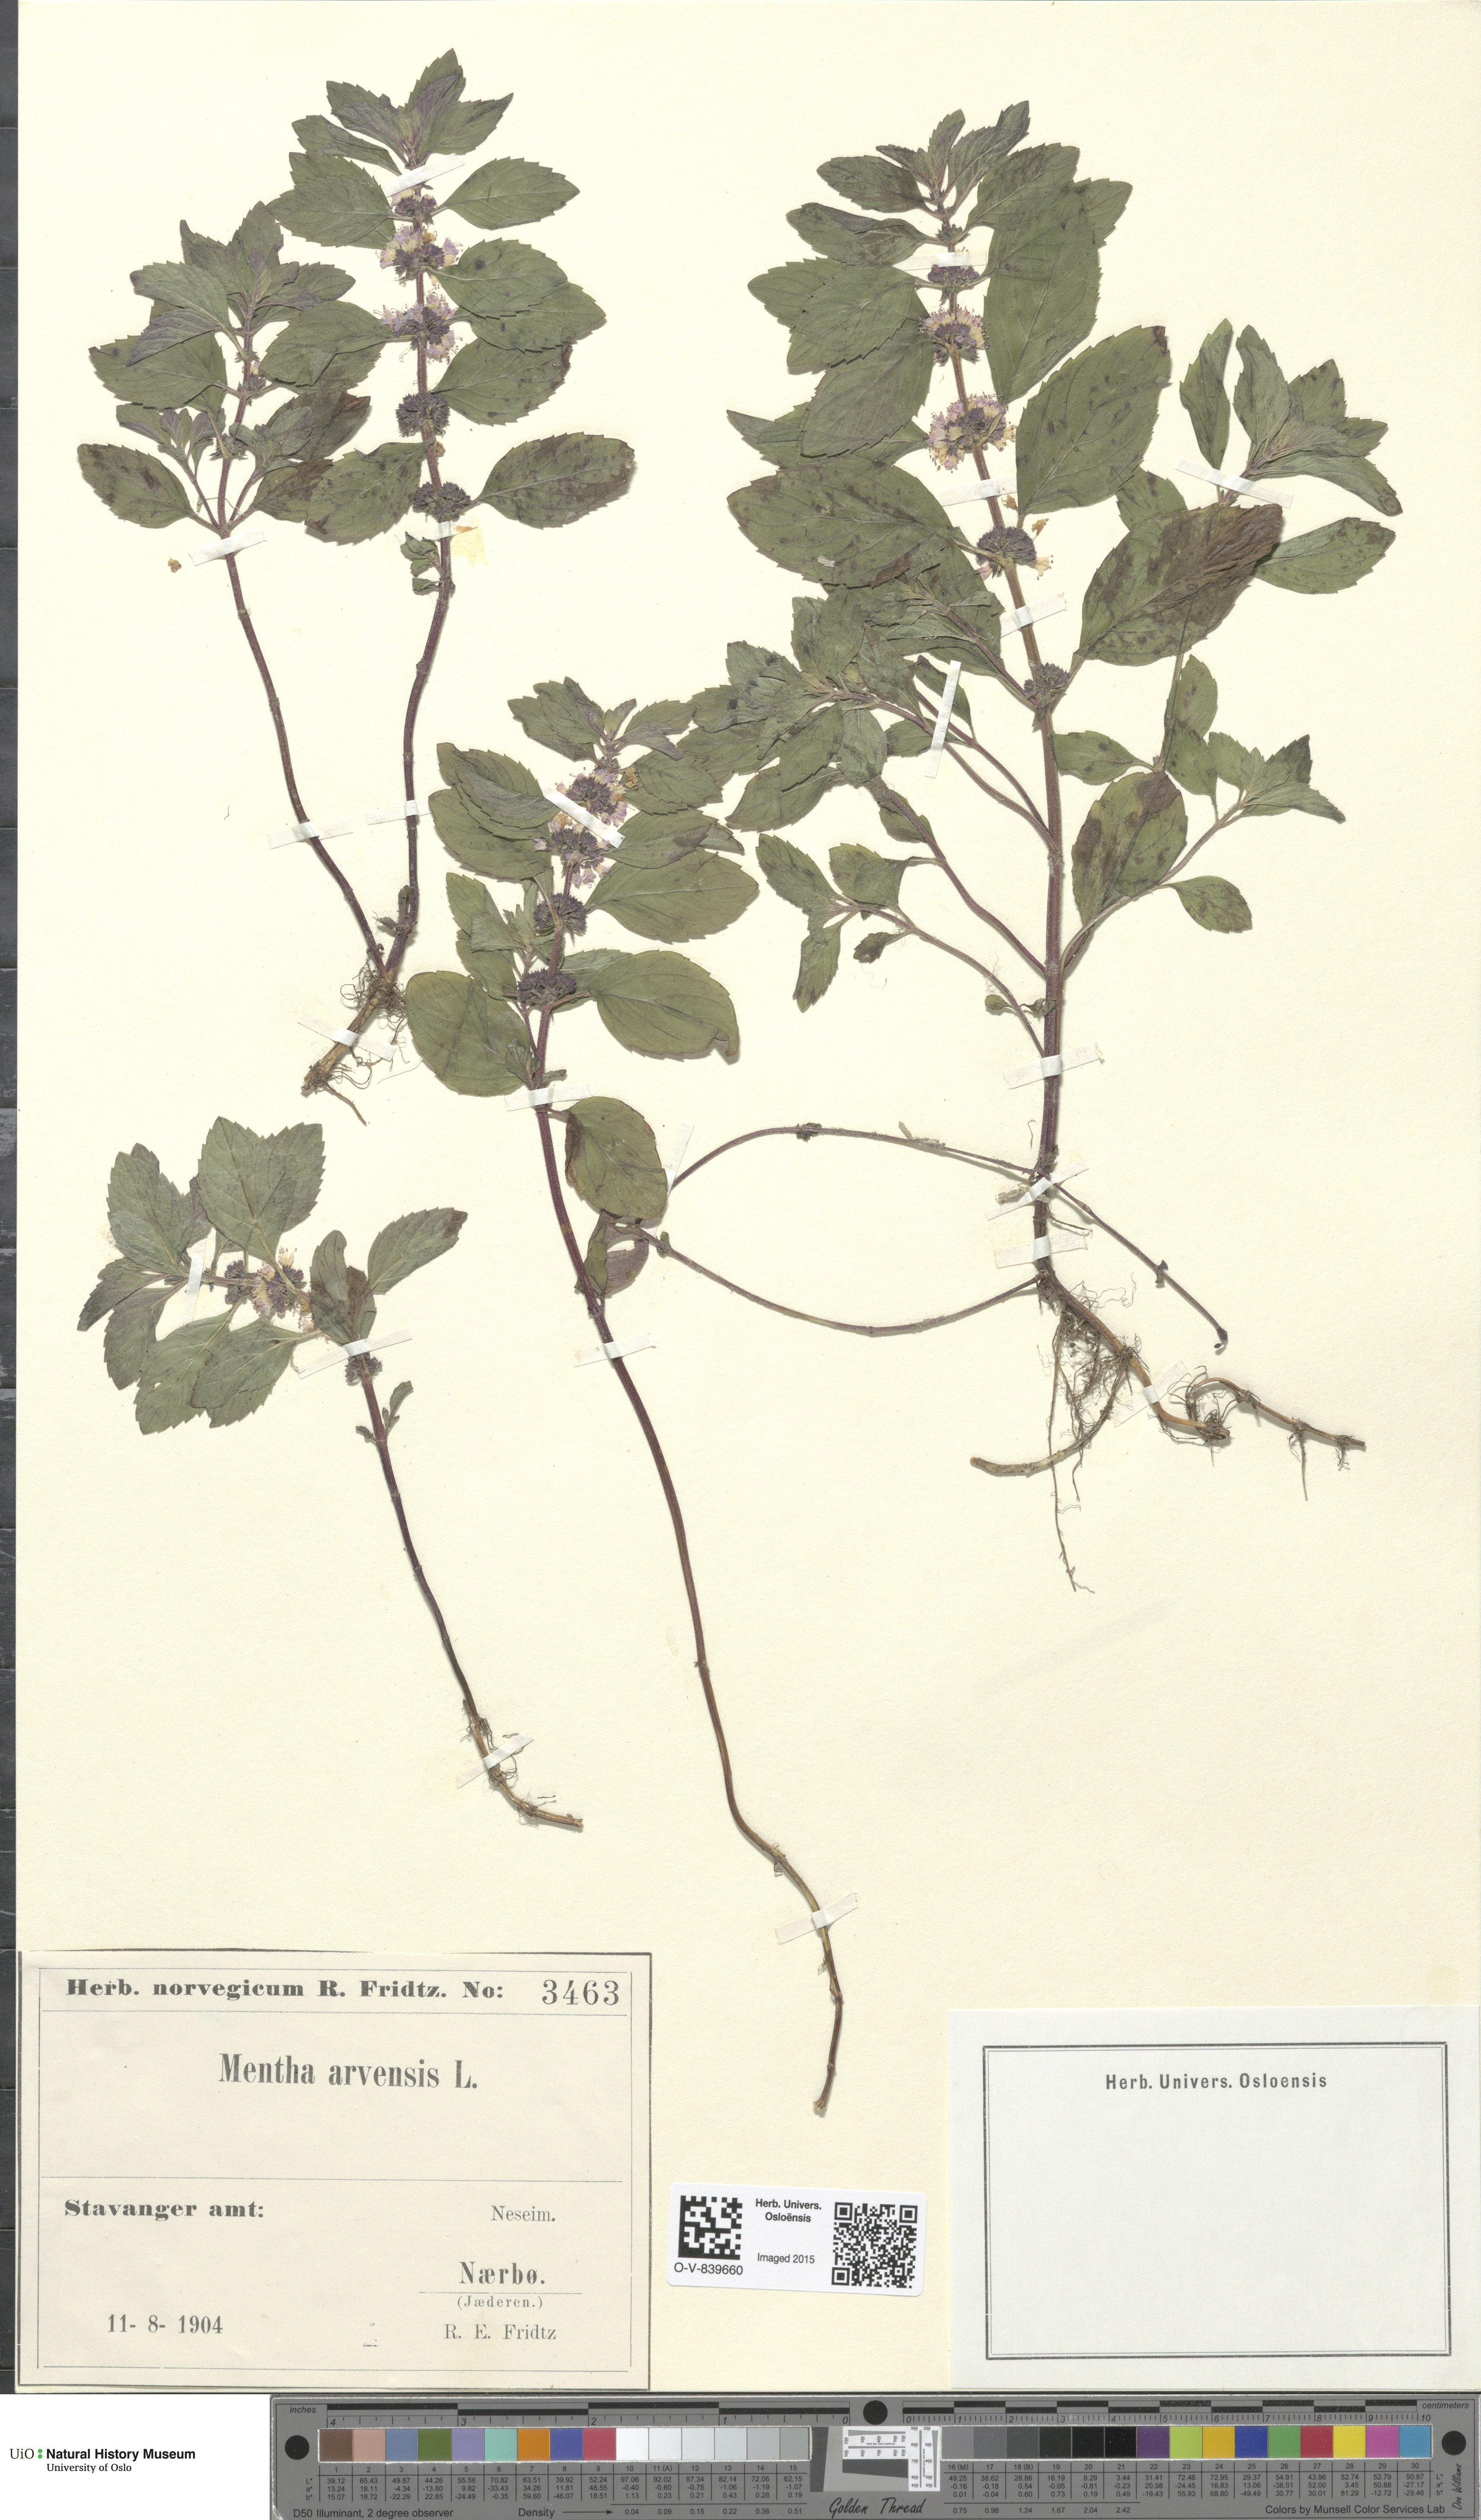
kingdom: Plantae
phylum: Tracheophyta
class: Magnoliopsida
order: Lamiales
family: Lamiaceae
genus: Mentha
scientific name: Mentha arvensis
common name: Corn mint
